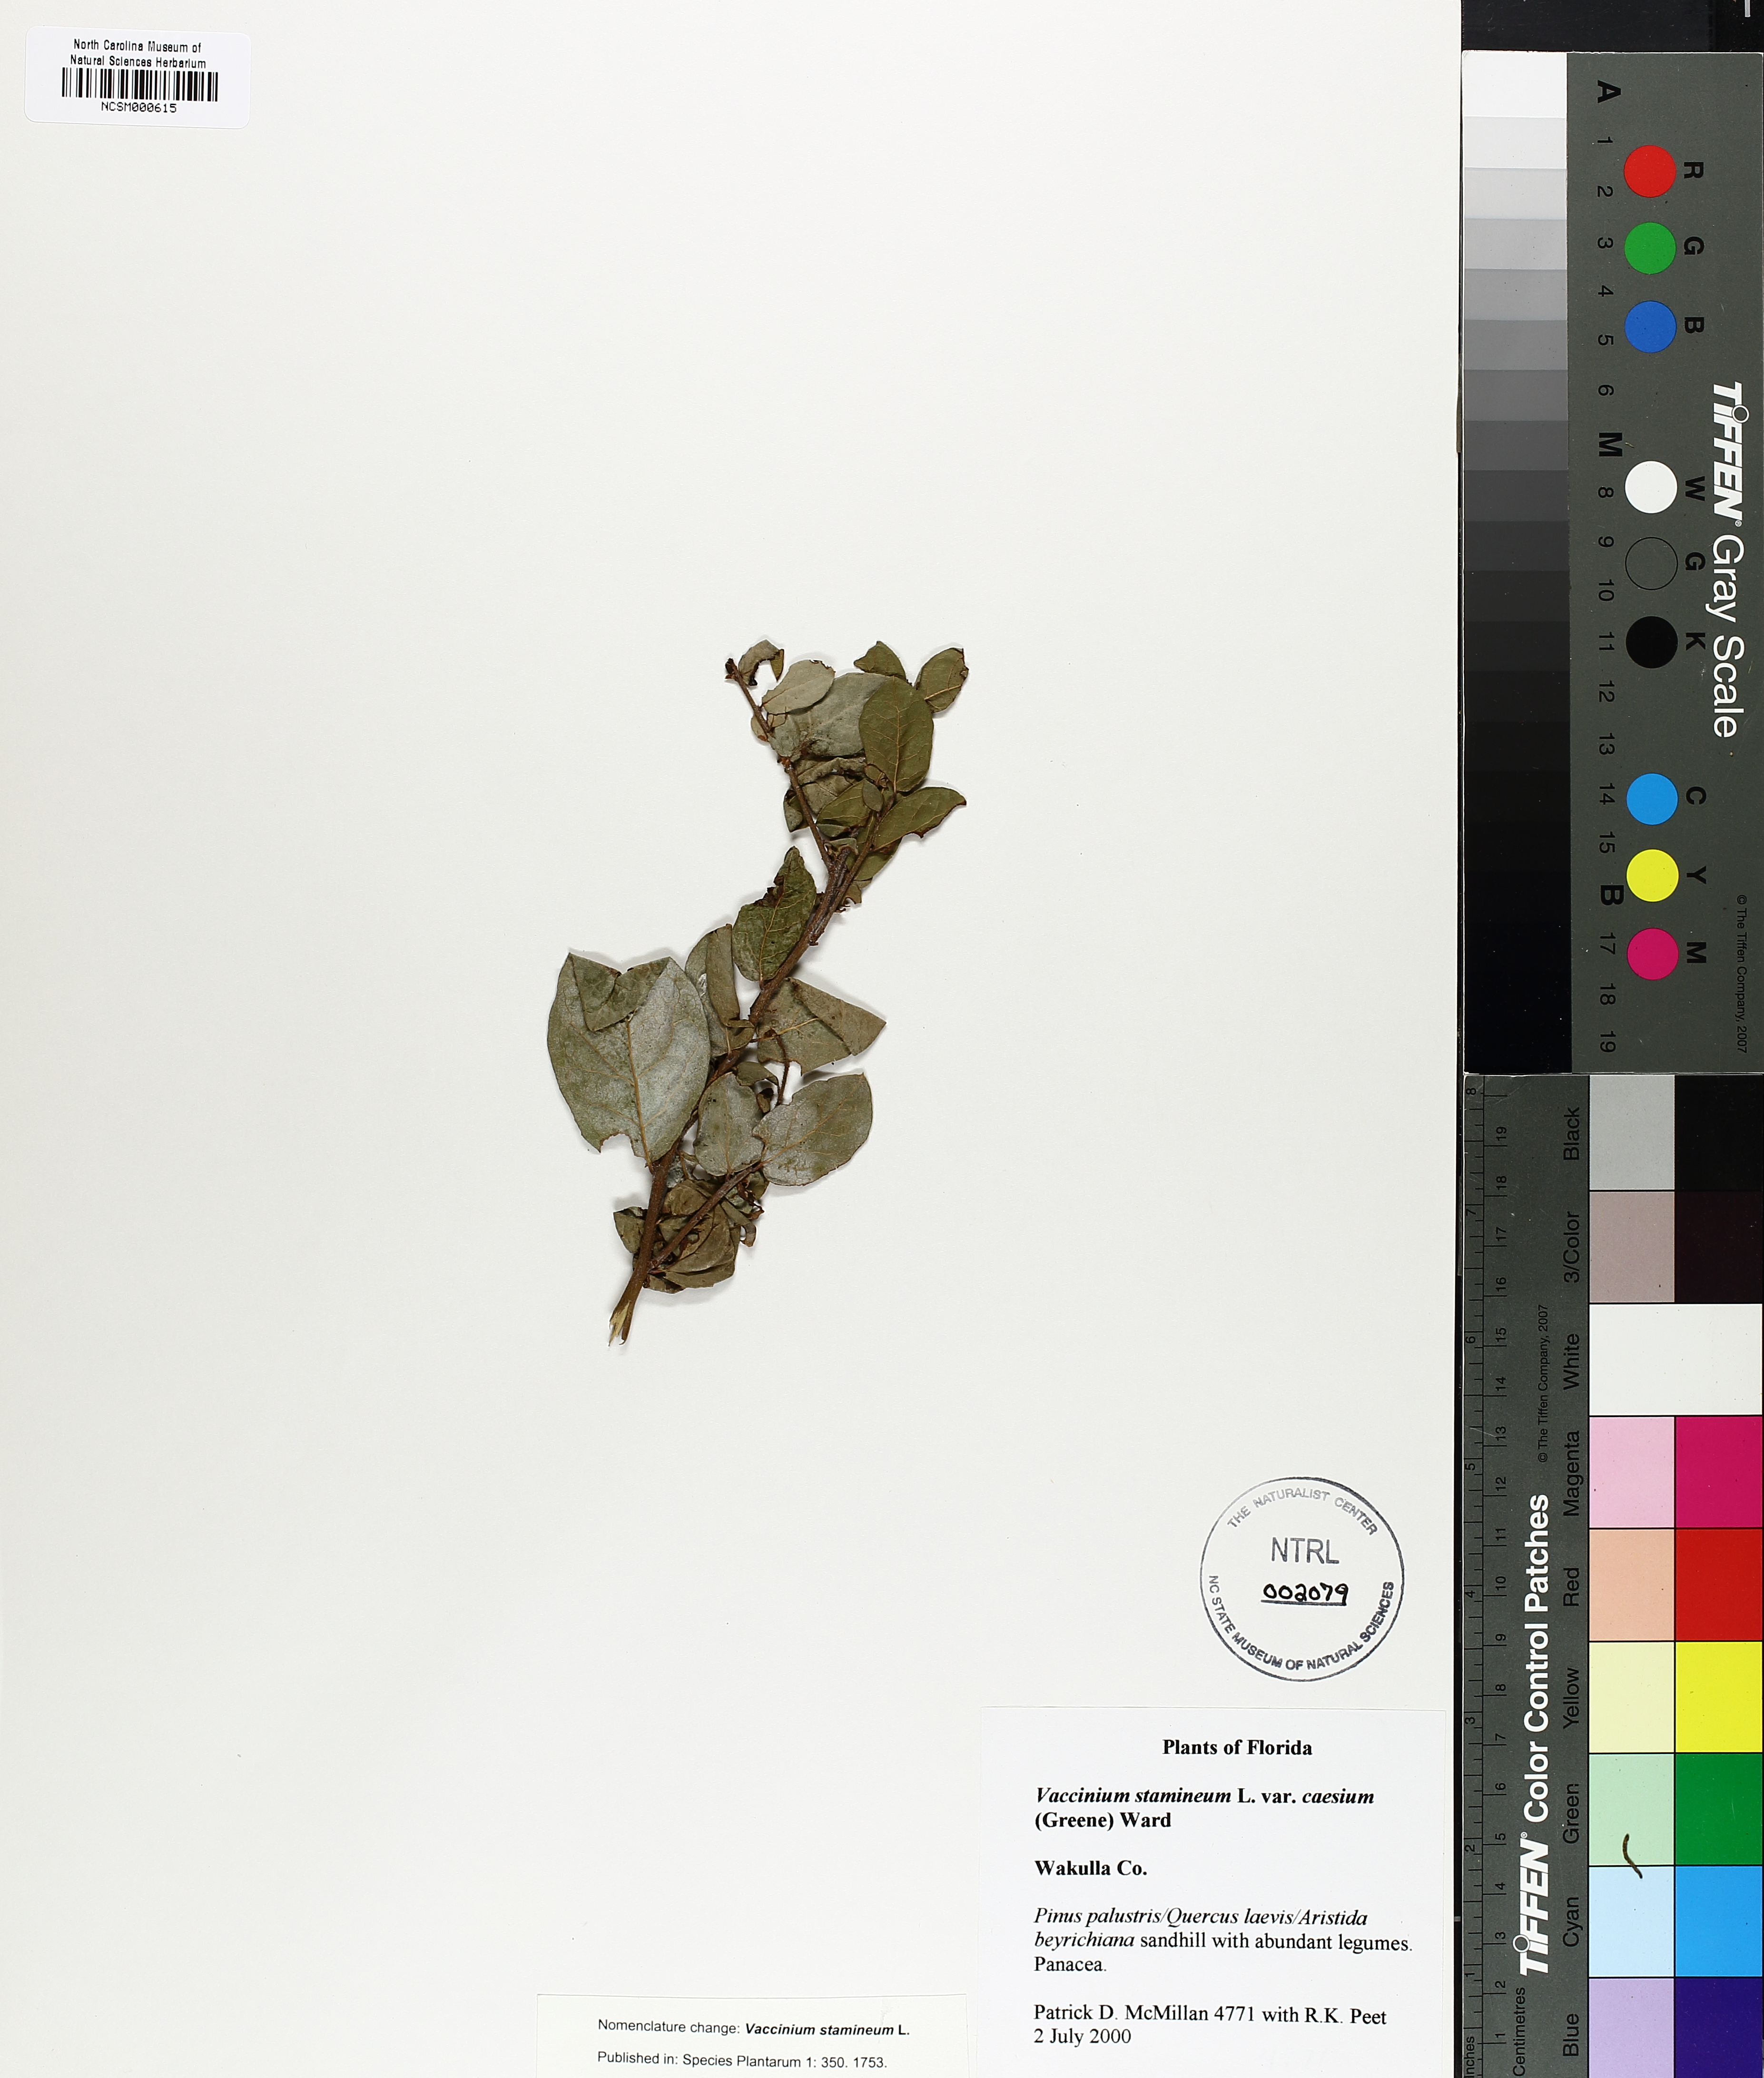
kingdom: Plantae
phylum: Tracheophyta
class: Magnoliopsida
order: Ericales
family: Ericaceae
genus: Vaccinium
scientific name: Vaccinium stamineum
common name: Deerberry
